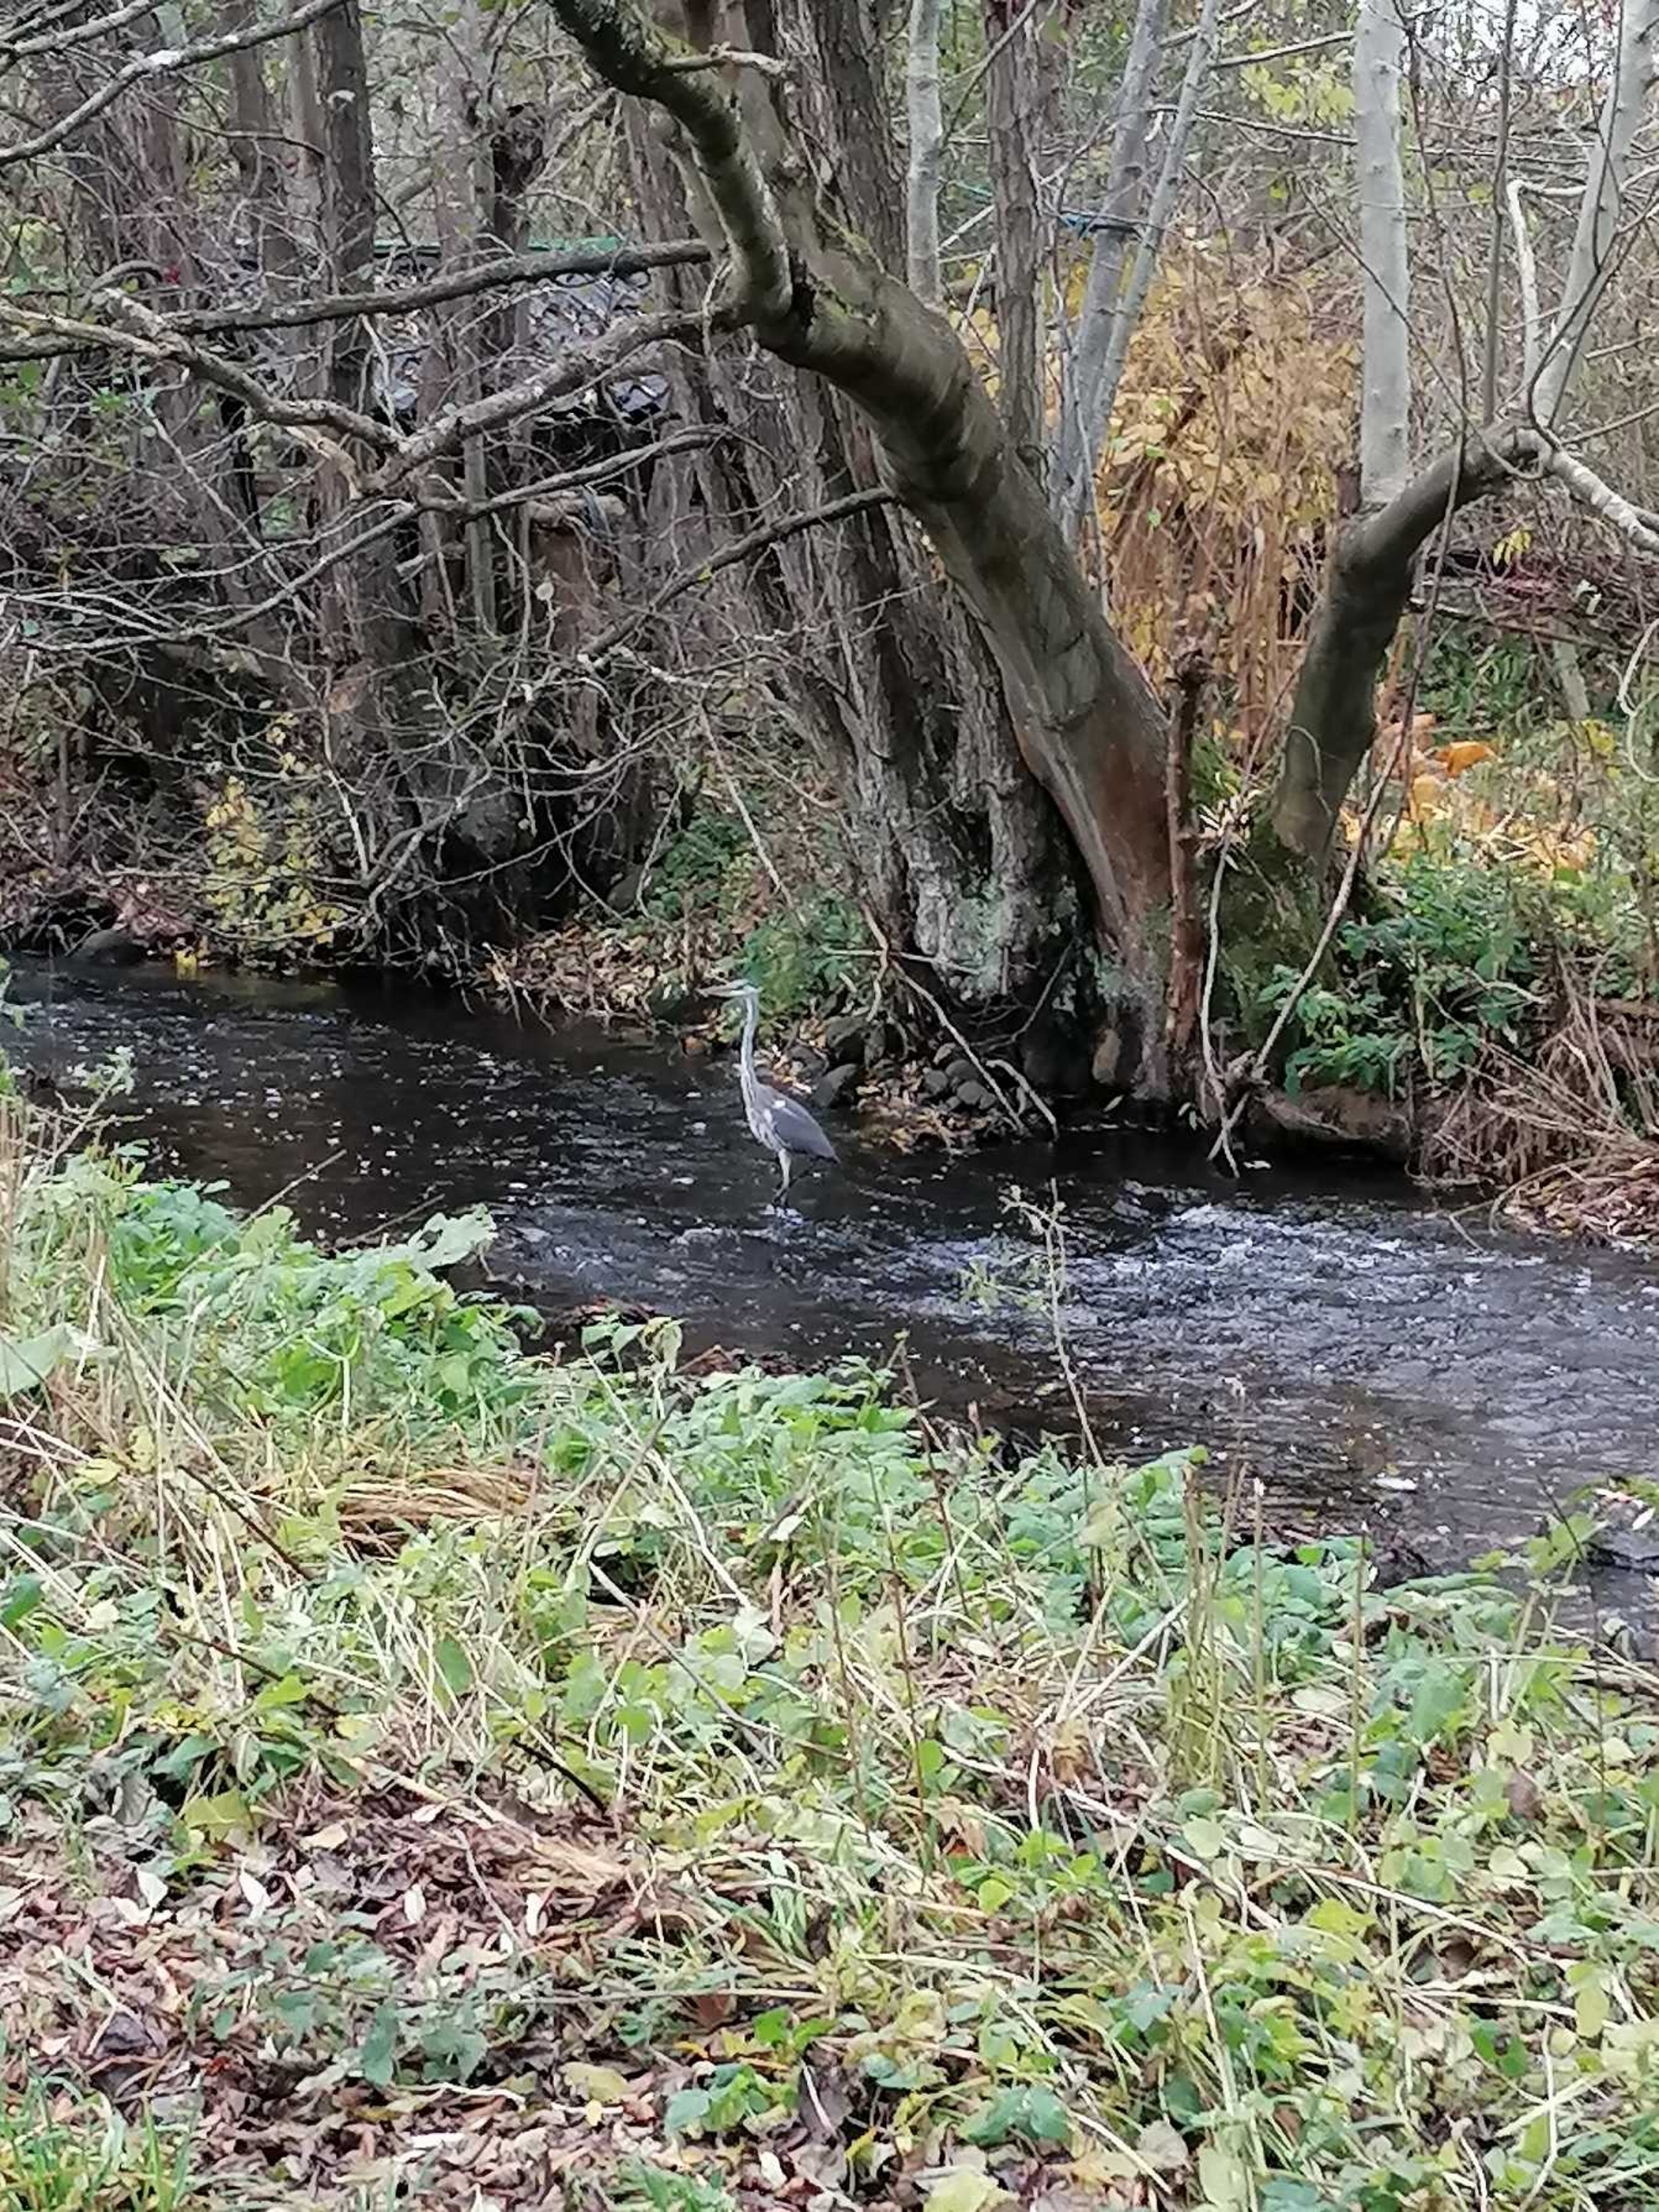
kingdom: Animalia
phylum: Chordata
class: Aves
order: Pelecaniformes
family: Ardeidae
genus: Ardea
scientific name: Ardea cinerea
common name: Fiskehejre
